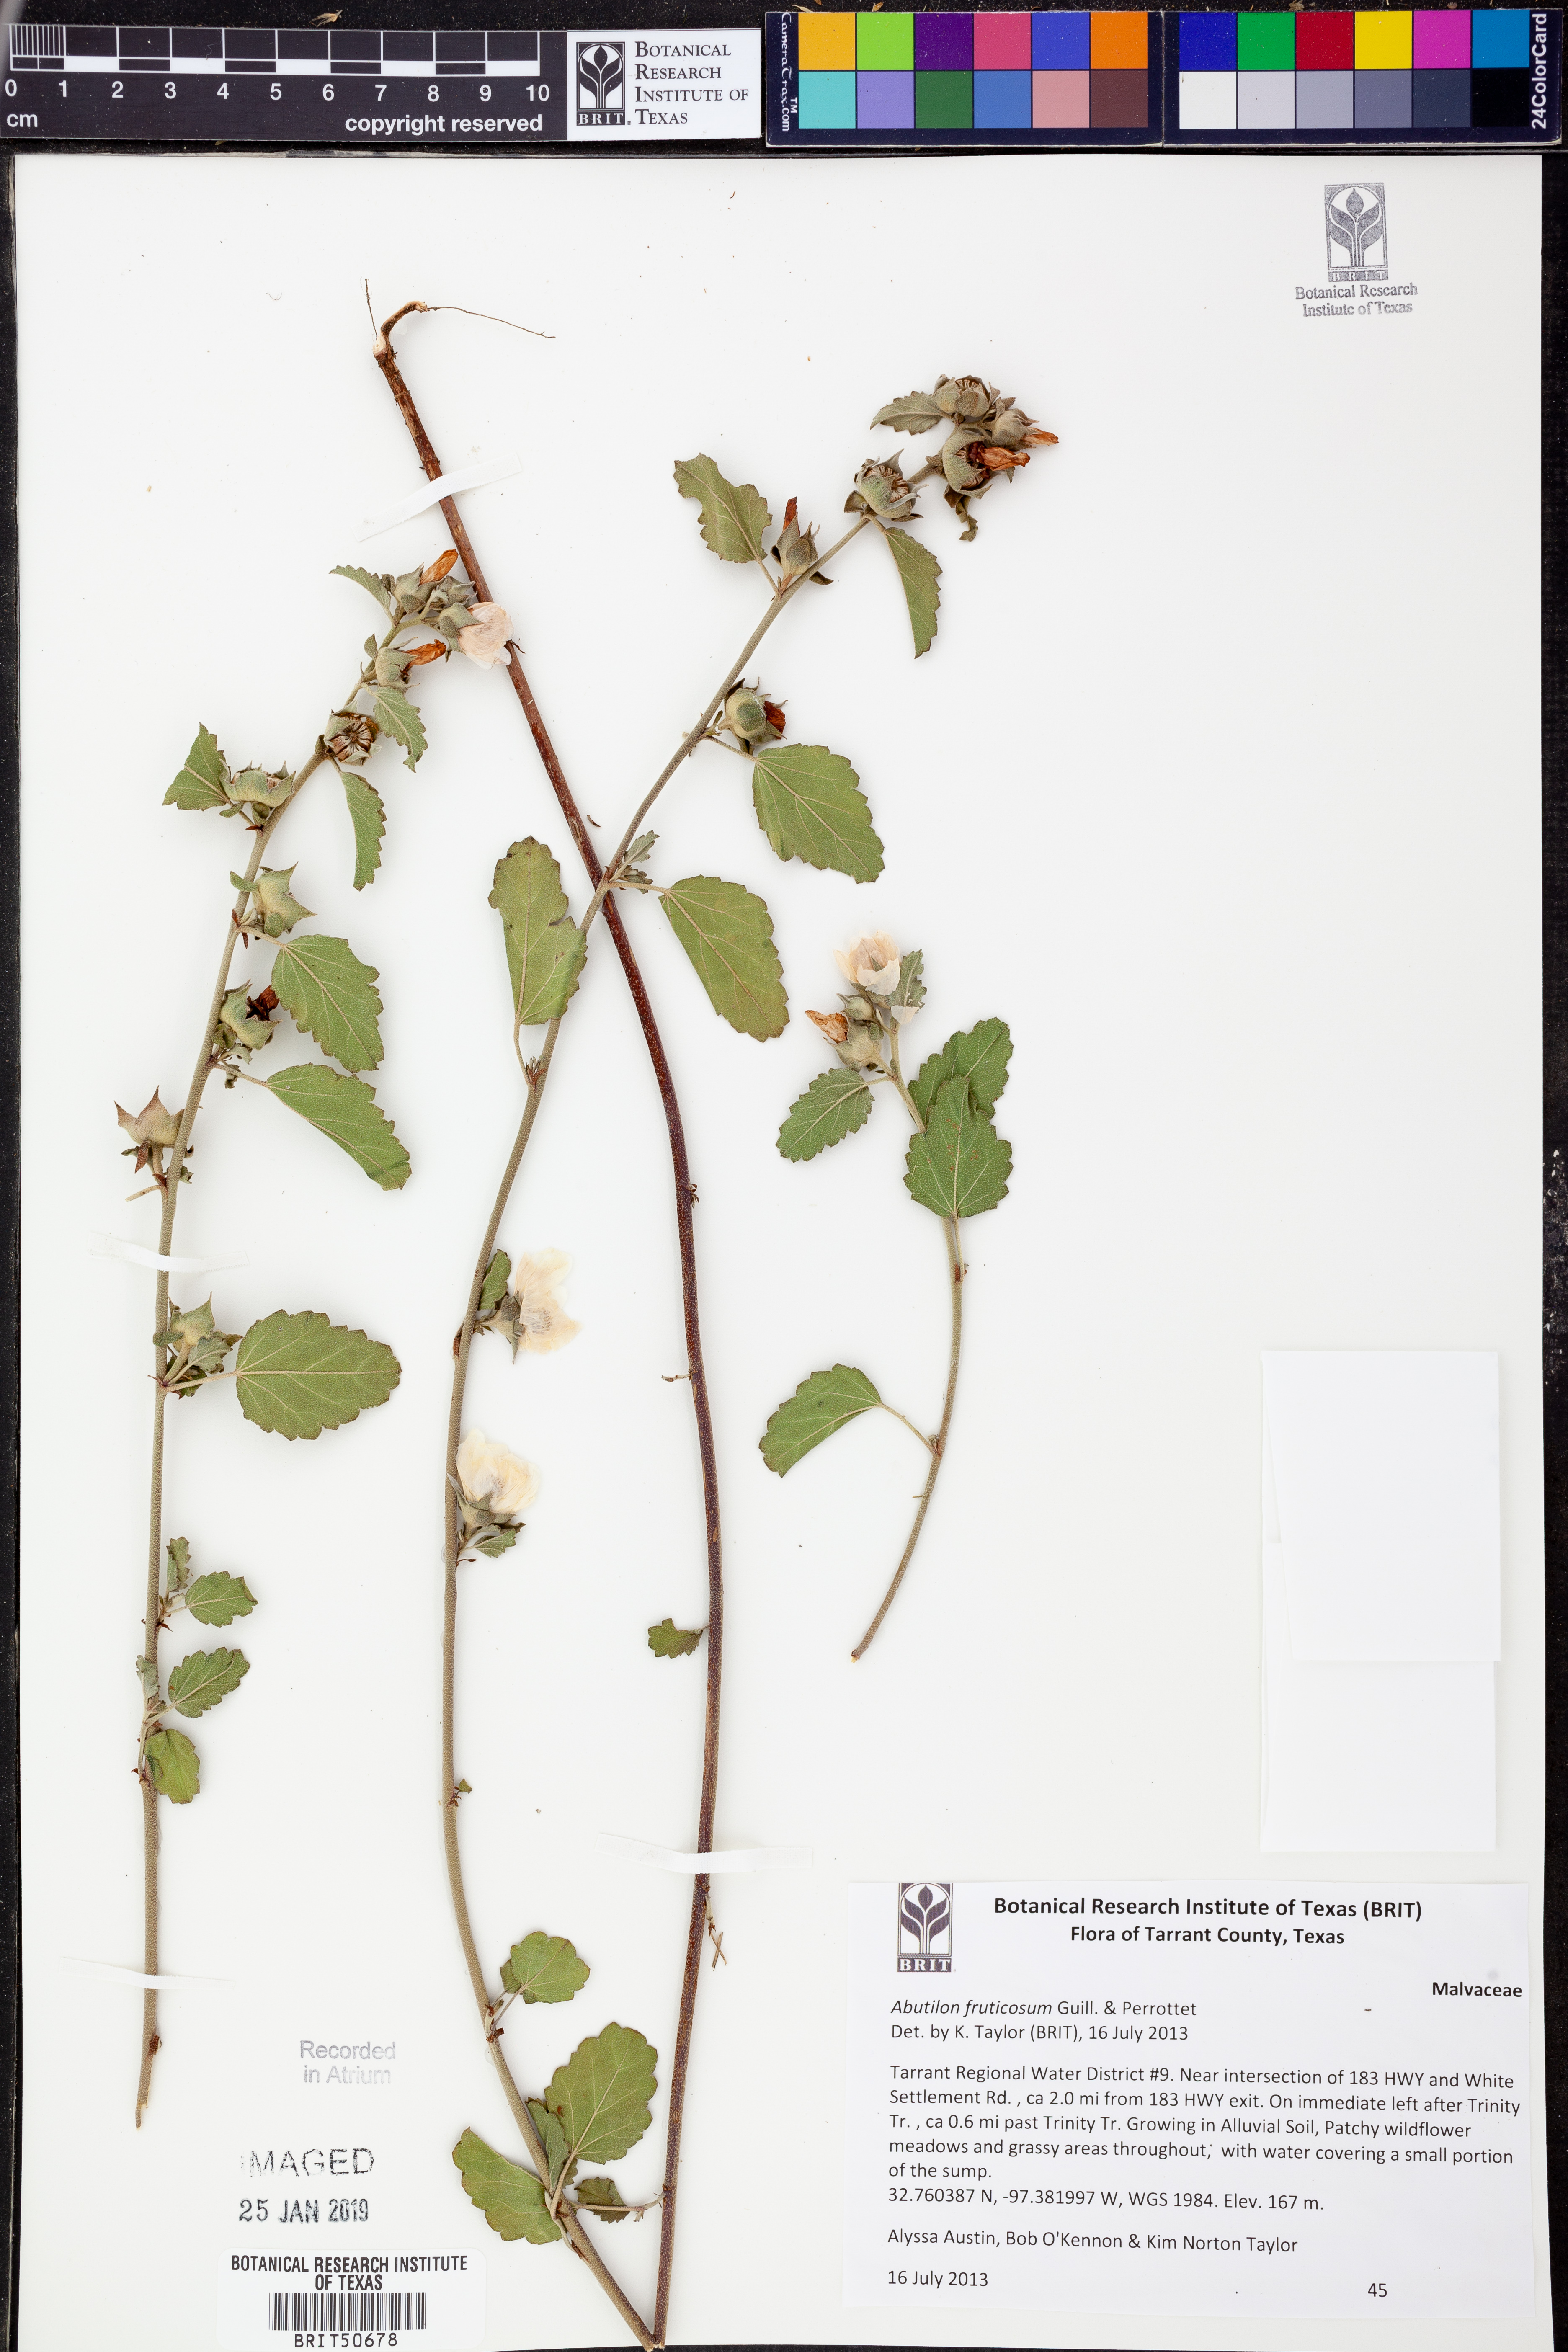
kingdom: Plantae
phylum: Tracheophyta
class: Magnoliopsida
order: Malvales
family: Malvaceae
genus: Abutilon
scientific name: Abutilon fruticosum
